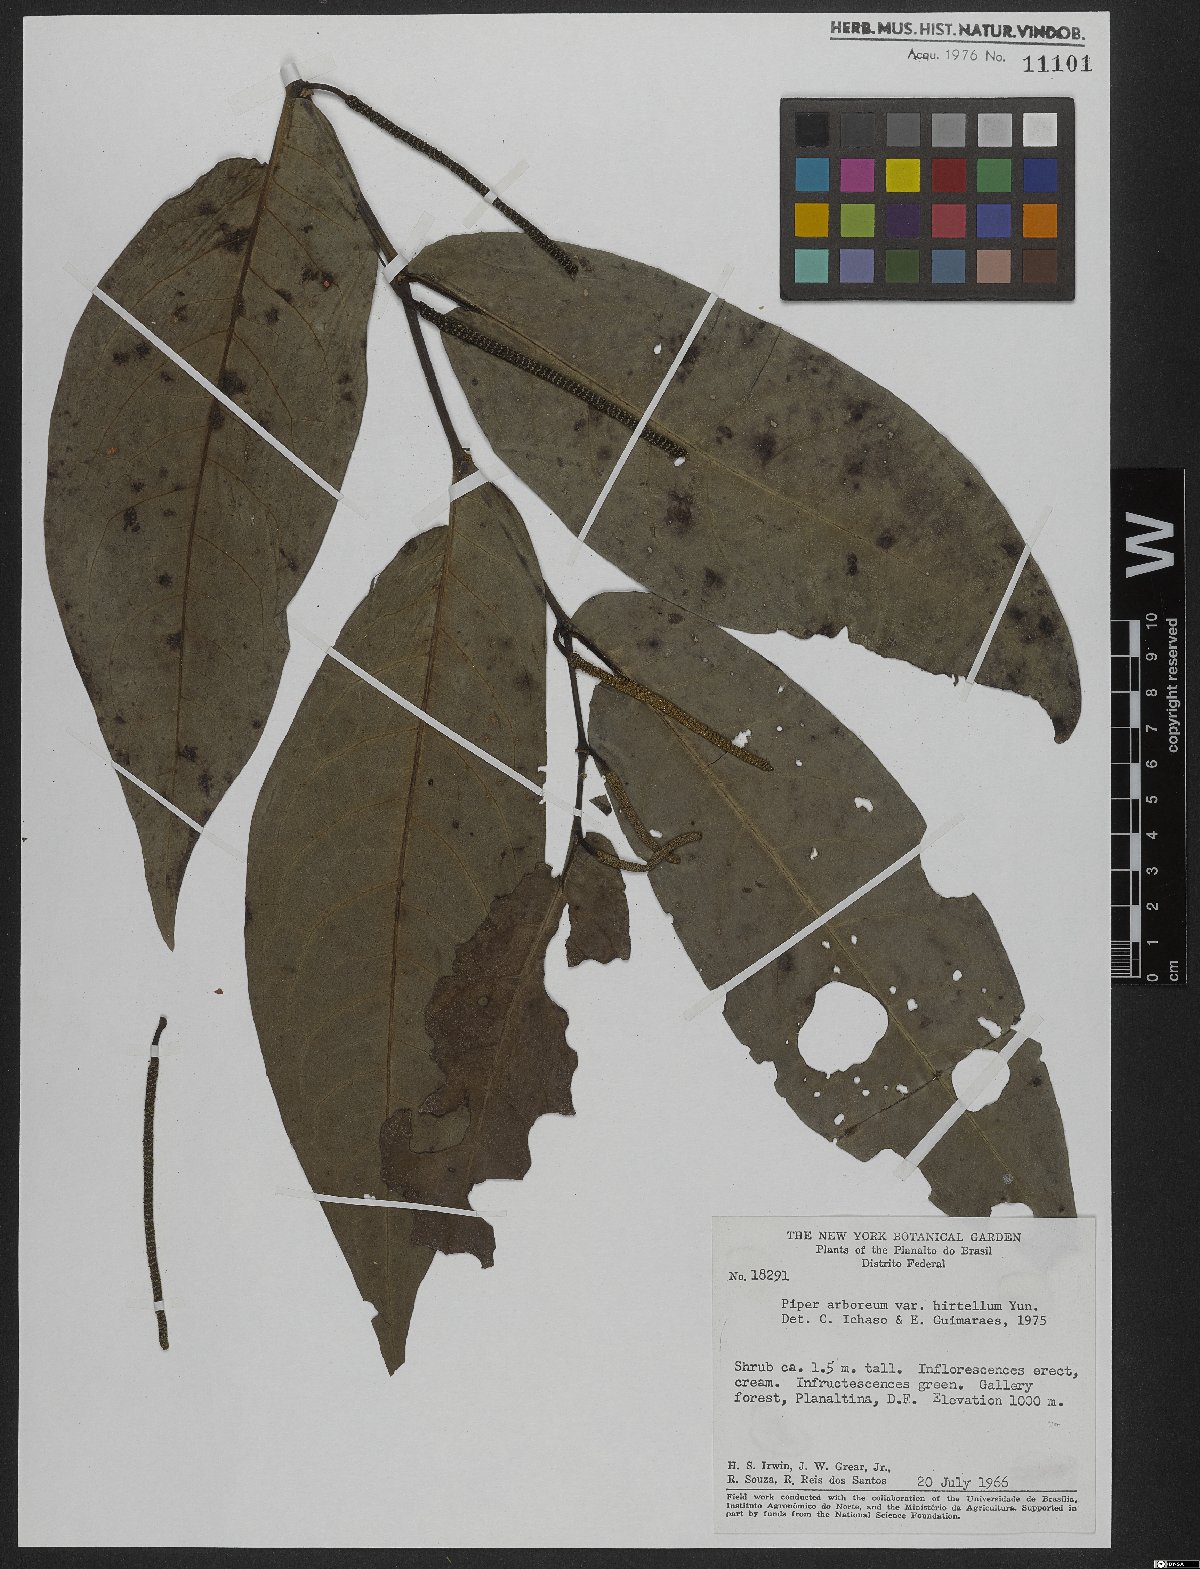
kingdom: Plantae
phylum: Tracheophyta
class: Magnoliopsida
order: Piperales
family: Piperaceae
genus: Piper
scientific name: Piper arboreum
